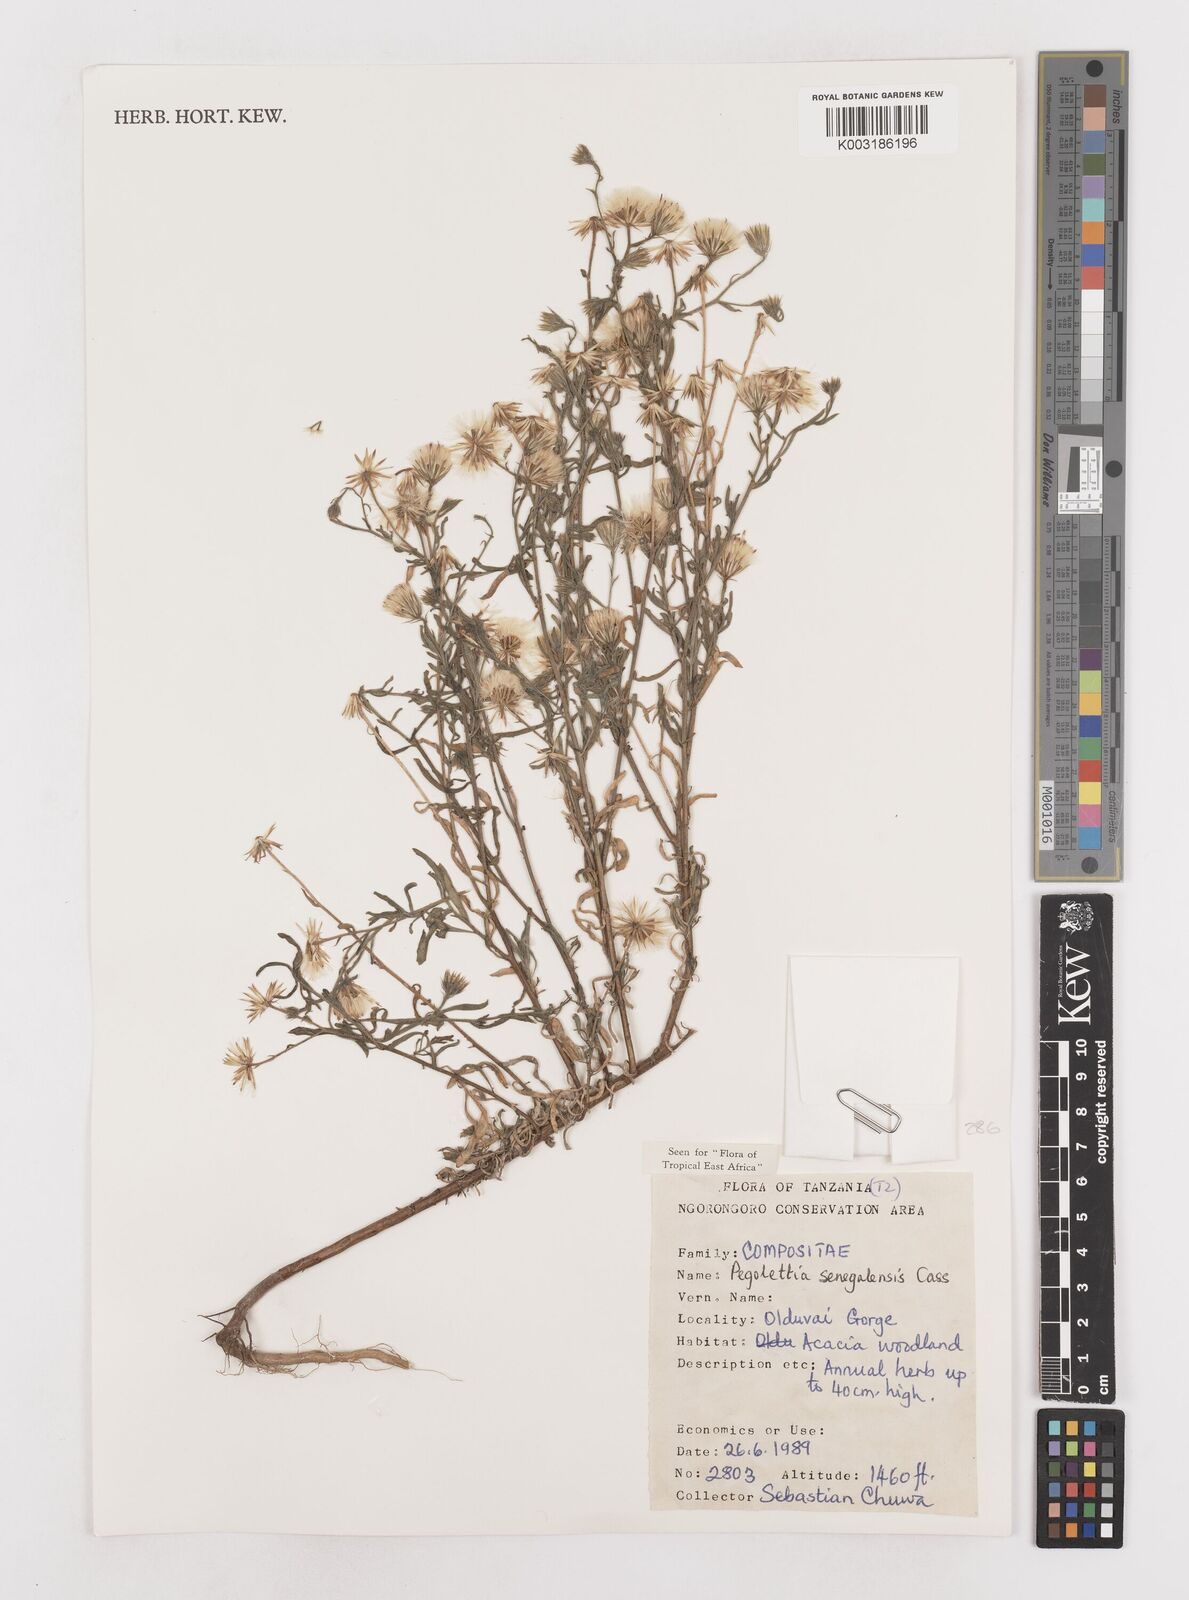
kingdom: Plantae
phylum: Tracheophyta
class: Magnoliopsida
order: Asterales
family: Asteraceae
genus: Pegolettia
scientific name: Pegolettia senegalensis
